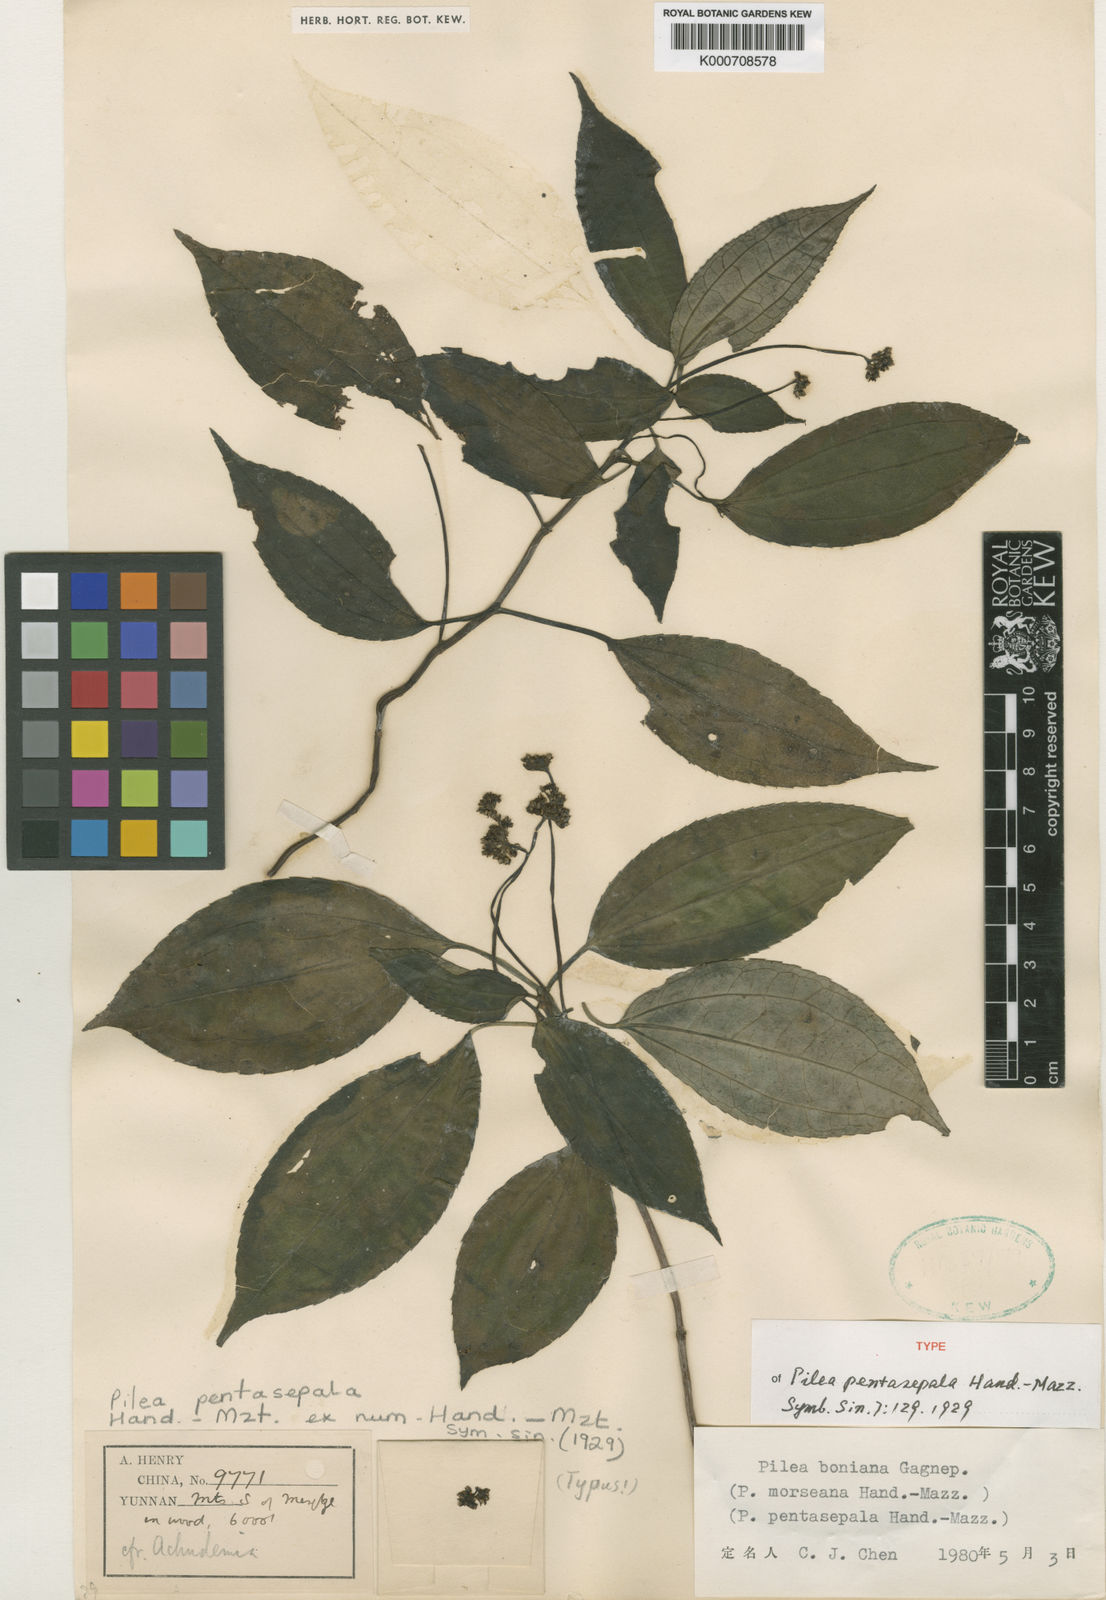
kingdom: Plantae
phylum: Tracheophyta
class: Magnoliopsida
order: Rosales
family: Urticaceae
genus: Achudemia
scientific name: Achudemia boniana
